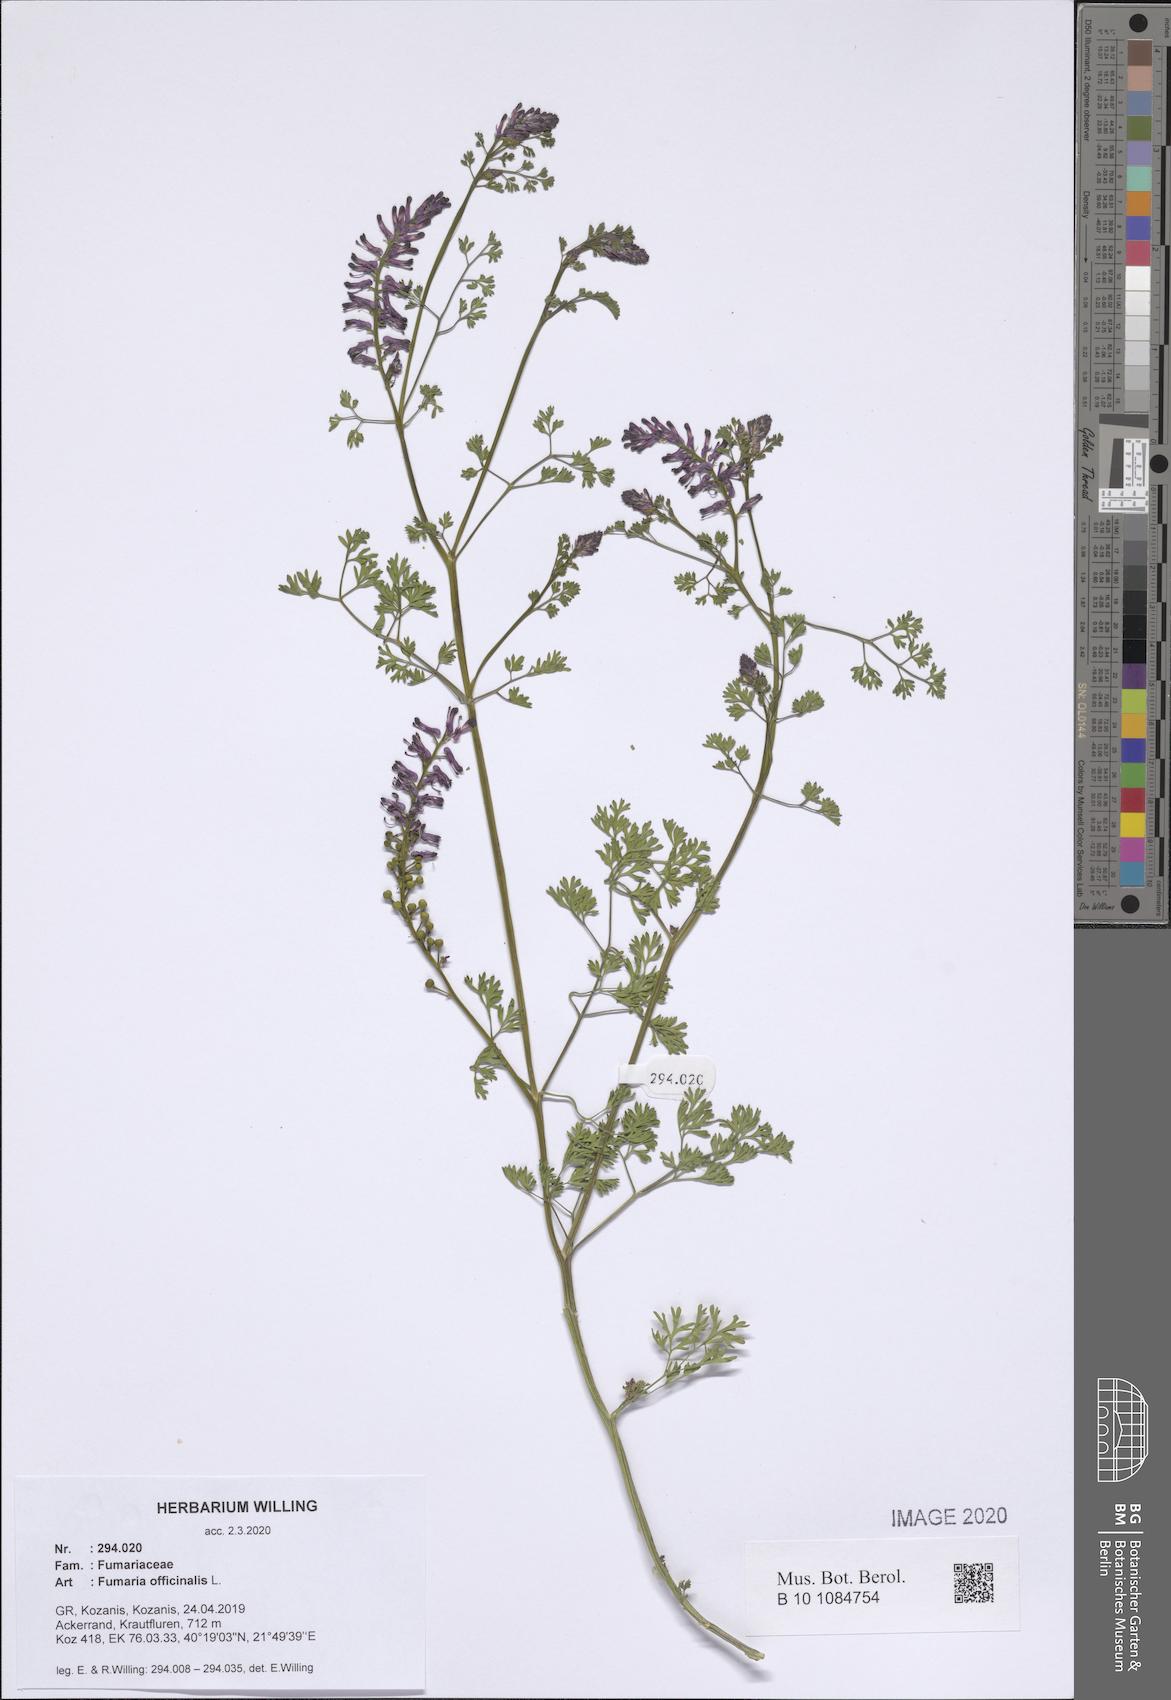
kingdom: Plantae
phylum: Tracheophyta
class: Magnoliopsida
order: Ranunculales
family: Papaveraceae
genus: Fumaria
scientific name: Fumaria officinalis
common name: Common fumitory
